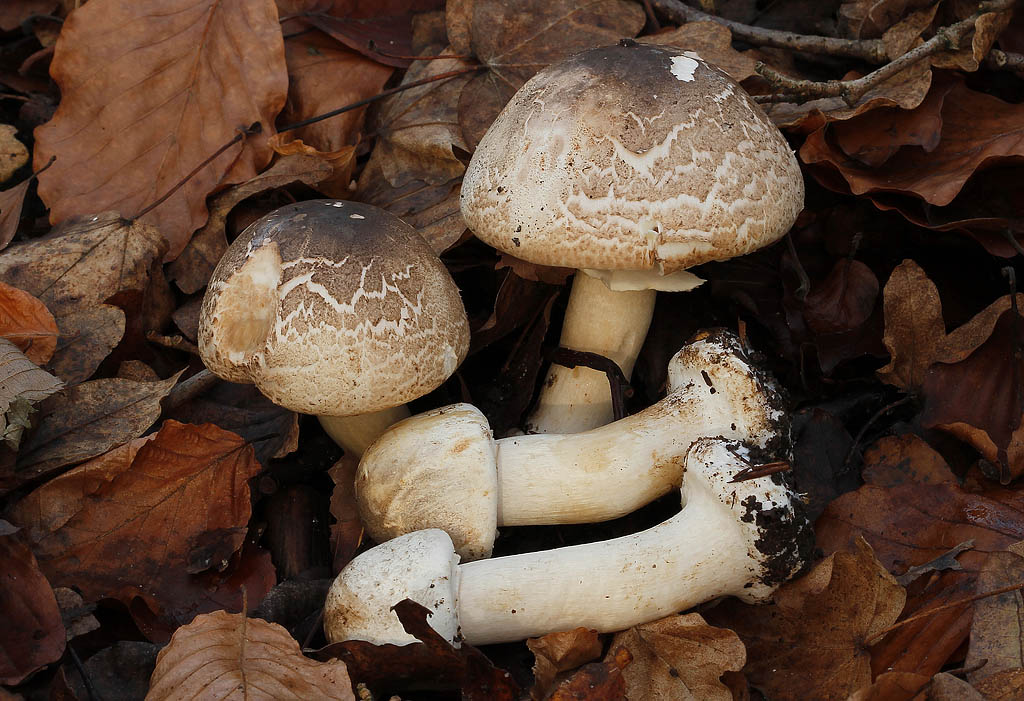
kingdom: Fungi
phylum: Basidiomycota
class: Agaricomycetes
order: Agaricales
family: Agaricaceae
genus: Agaricus
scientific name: Agaricus moelleri
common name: perlehøne-champignon
